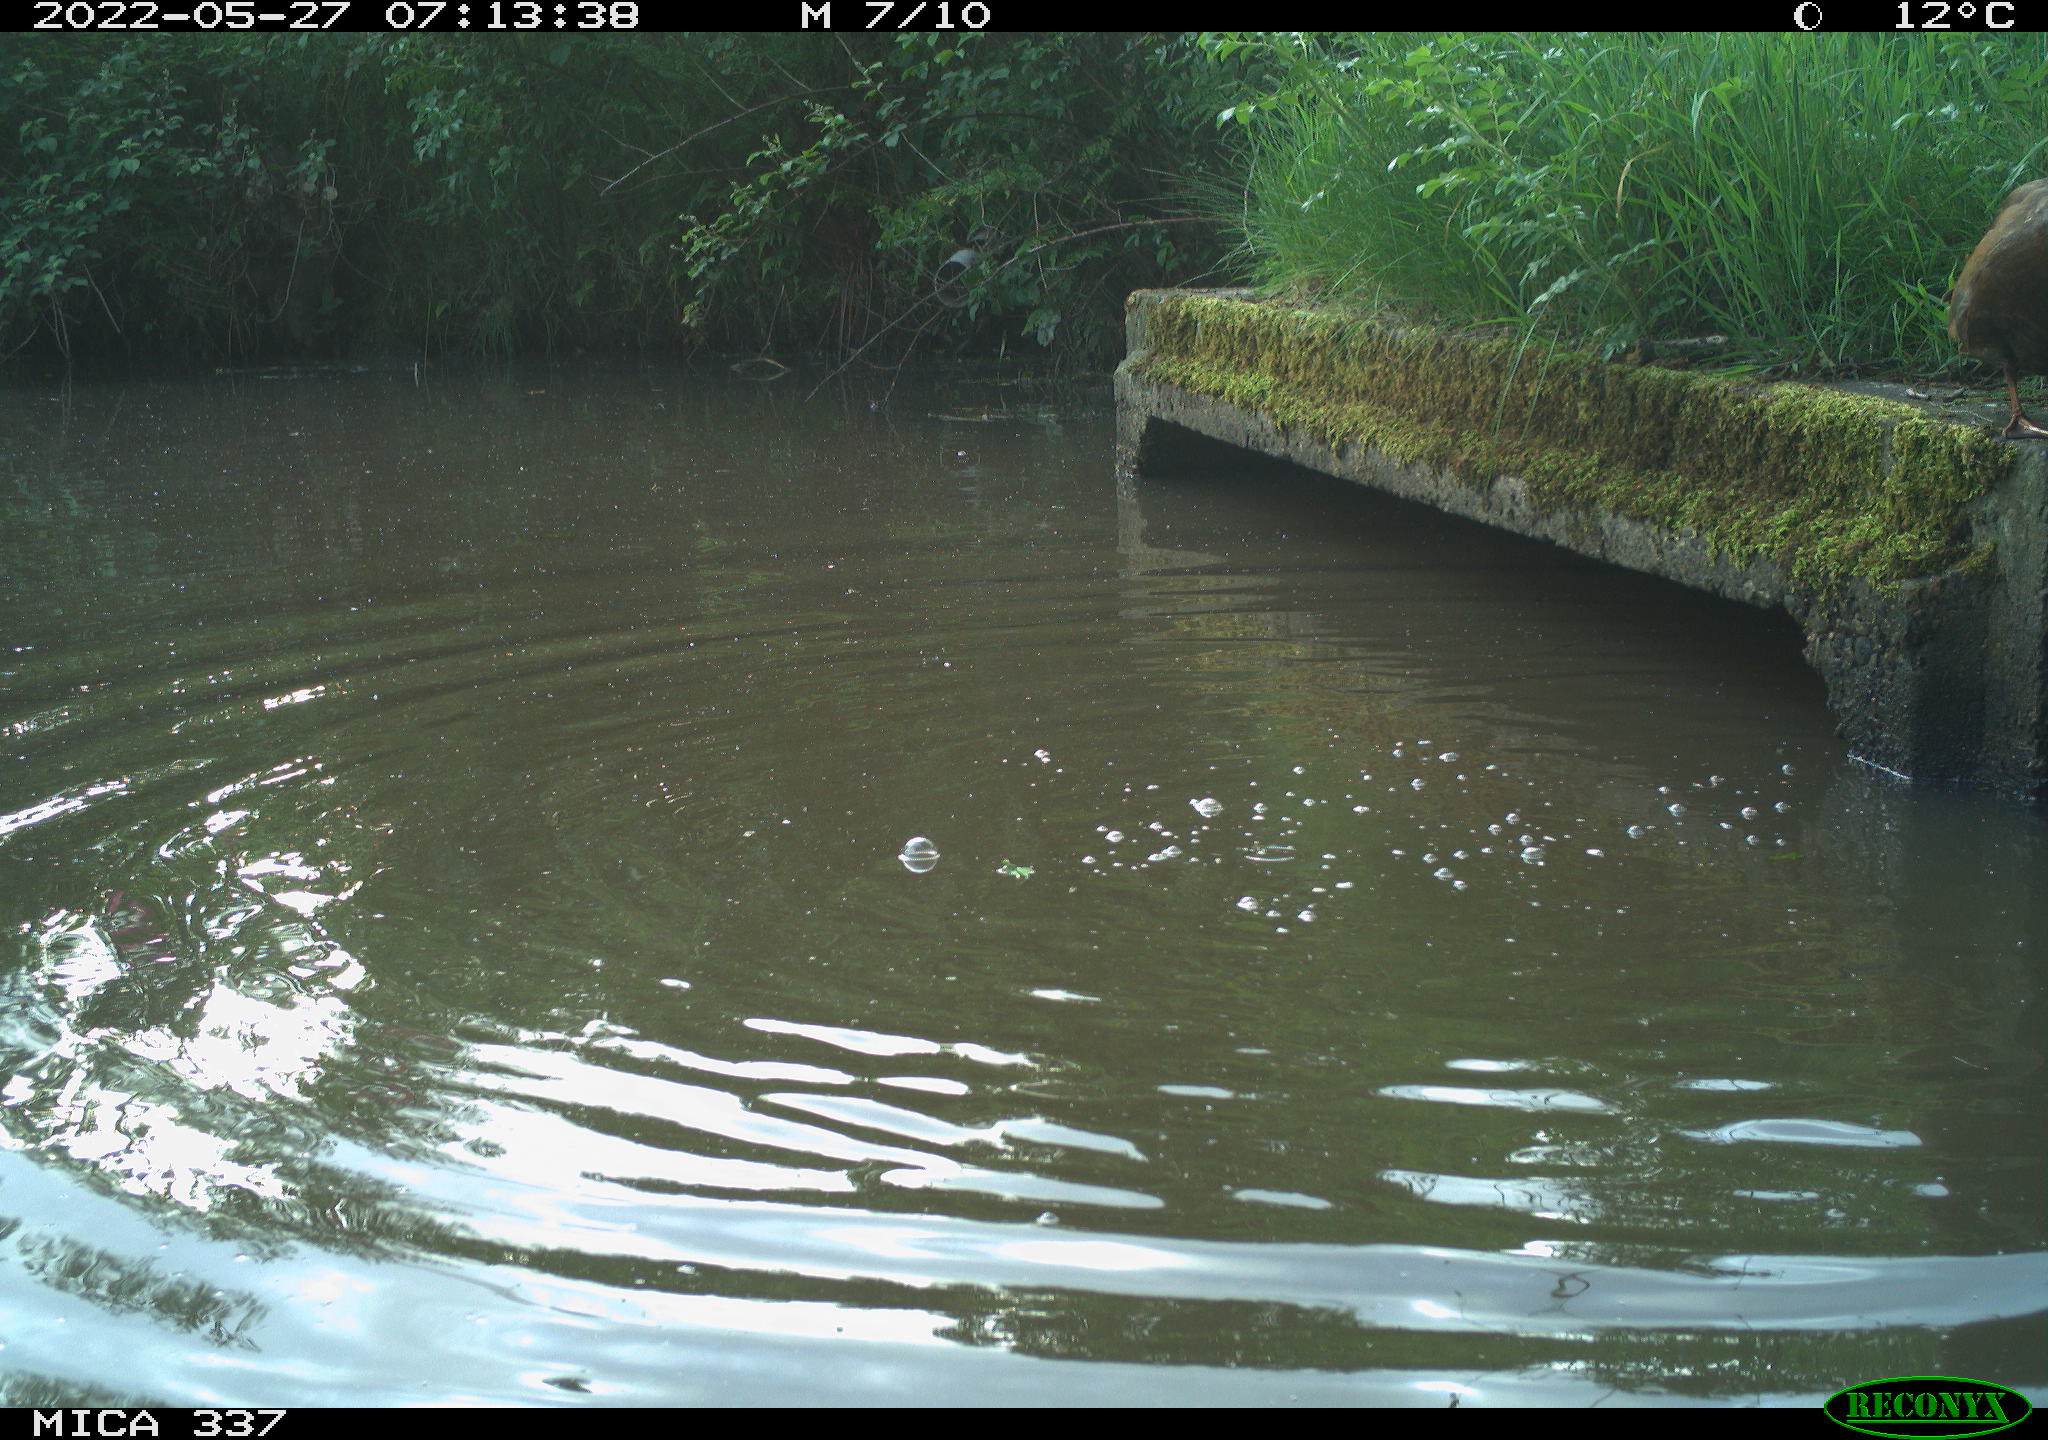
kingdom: Animalia
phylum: Chordata
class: Aves
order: Pelecaniformes
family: Ardeidae
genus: Ardea
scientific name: Ardea
